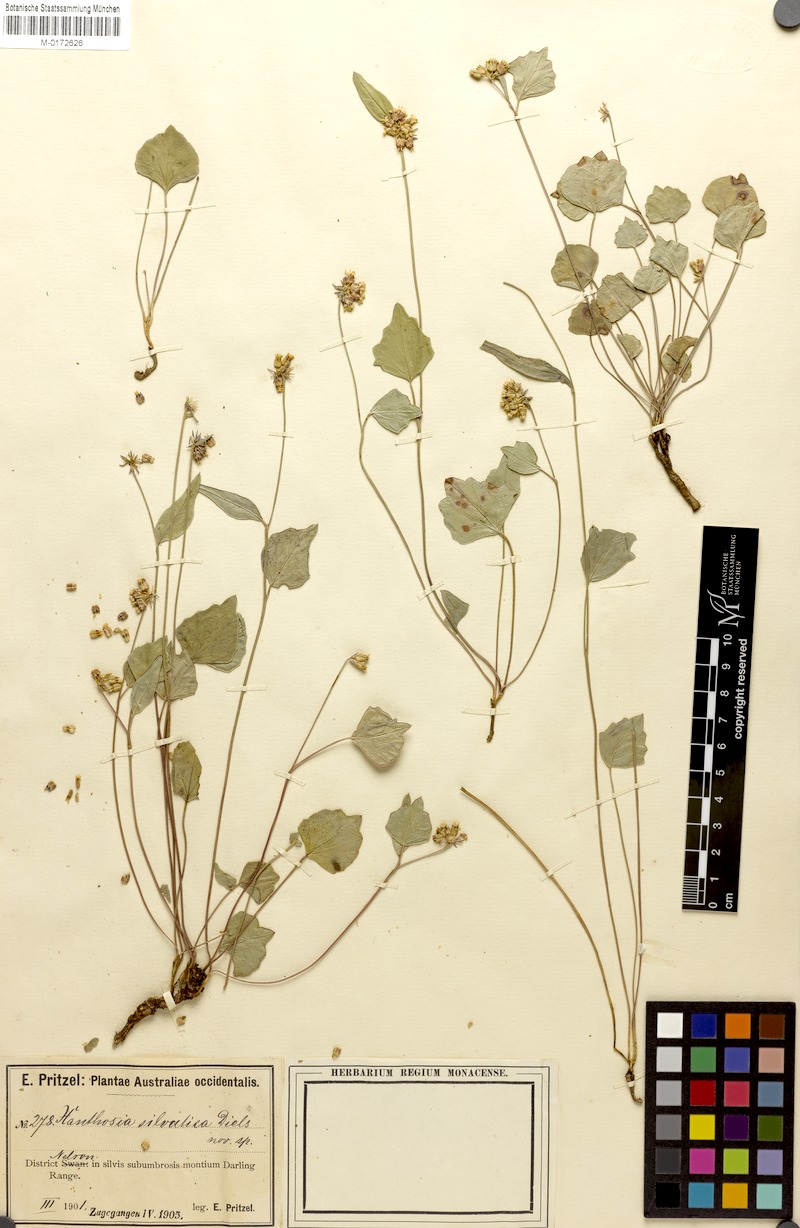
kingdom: Plantae
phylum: Tracheophyta
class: Magnoliopsida
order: Apiales
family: Apiaceae
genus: Pentapeltis
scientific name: Pentapeltis silvatica
